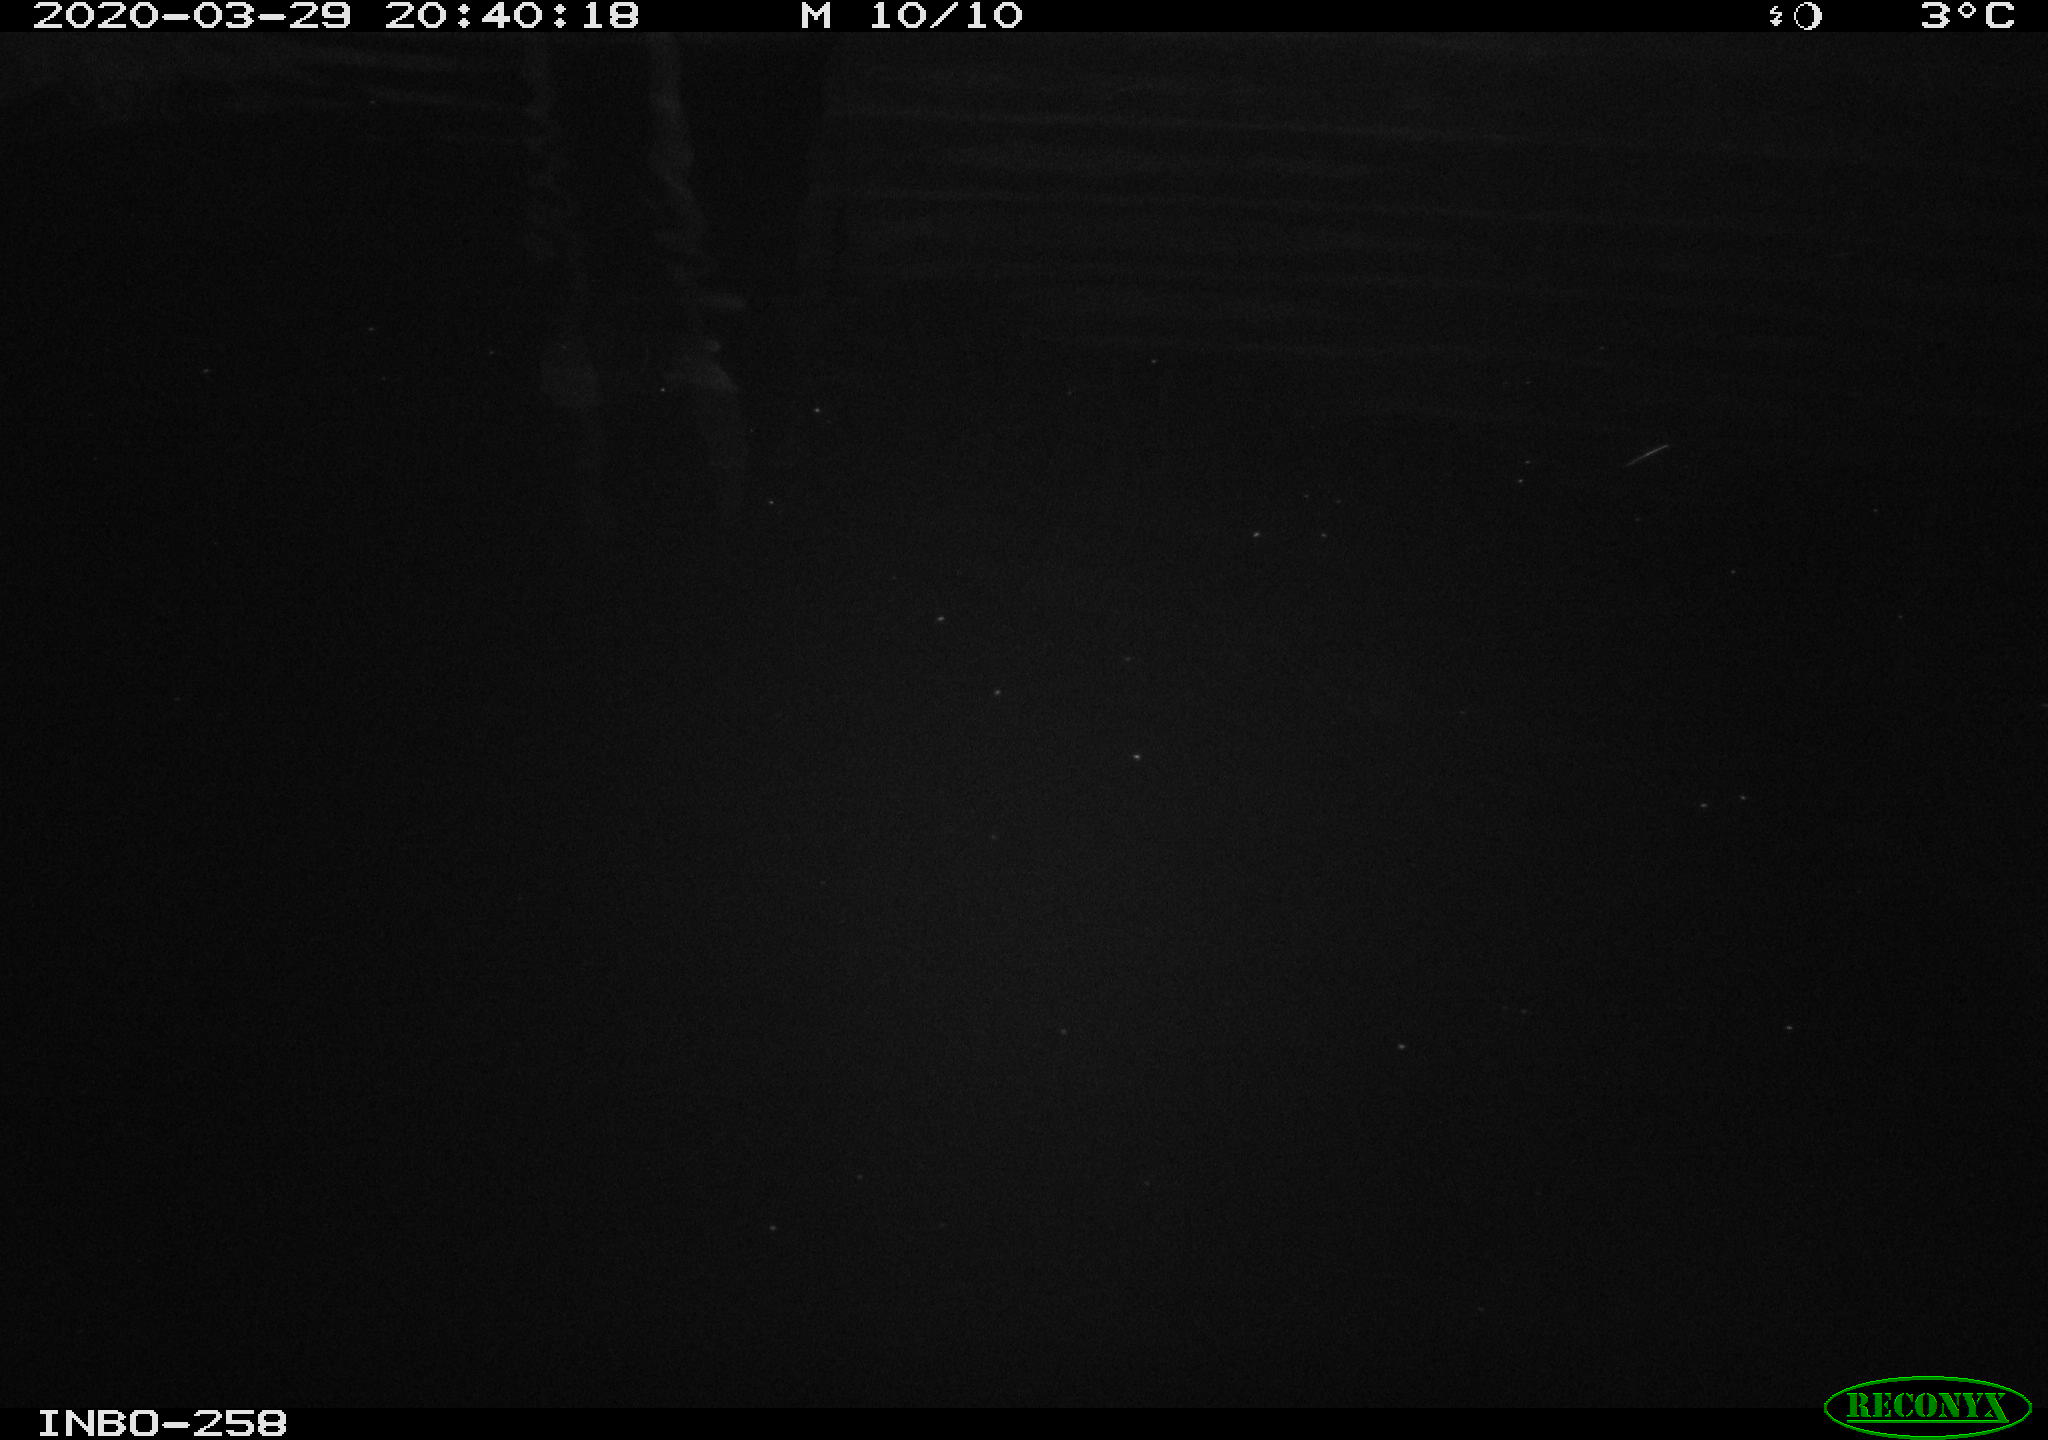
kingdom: Animalia
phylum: Chordata
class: Mammalia
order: Rodentia
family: Muridae
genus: Rattus
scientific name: Rattus norvegicus
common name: Brown rat
